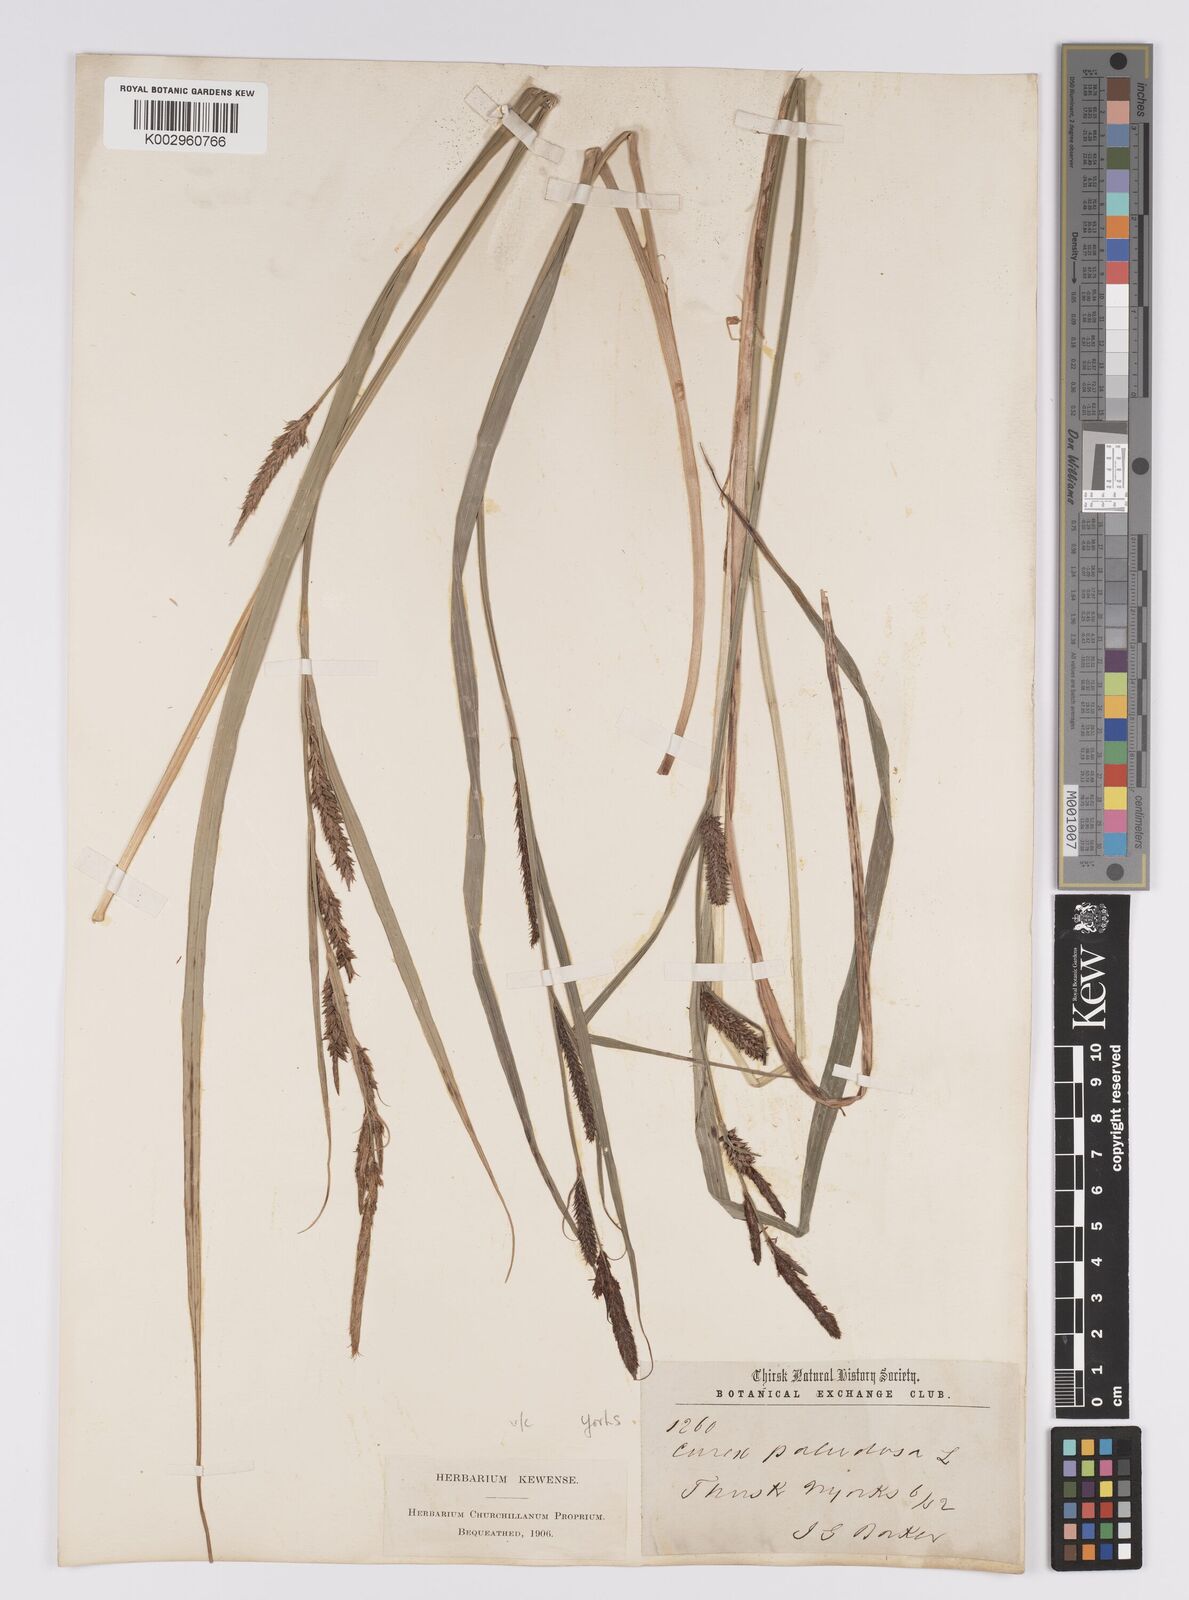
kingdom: Plantae
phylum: Tracheophyta
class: Liliopsida
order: Poales
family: Cyperaceae
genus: Carex
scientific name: Carex acutiformis
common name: Lesser pond-sedge
